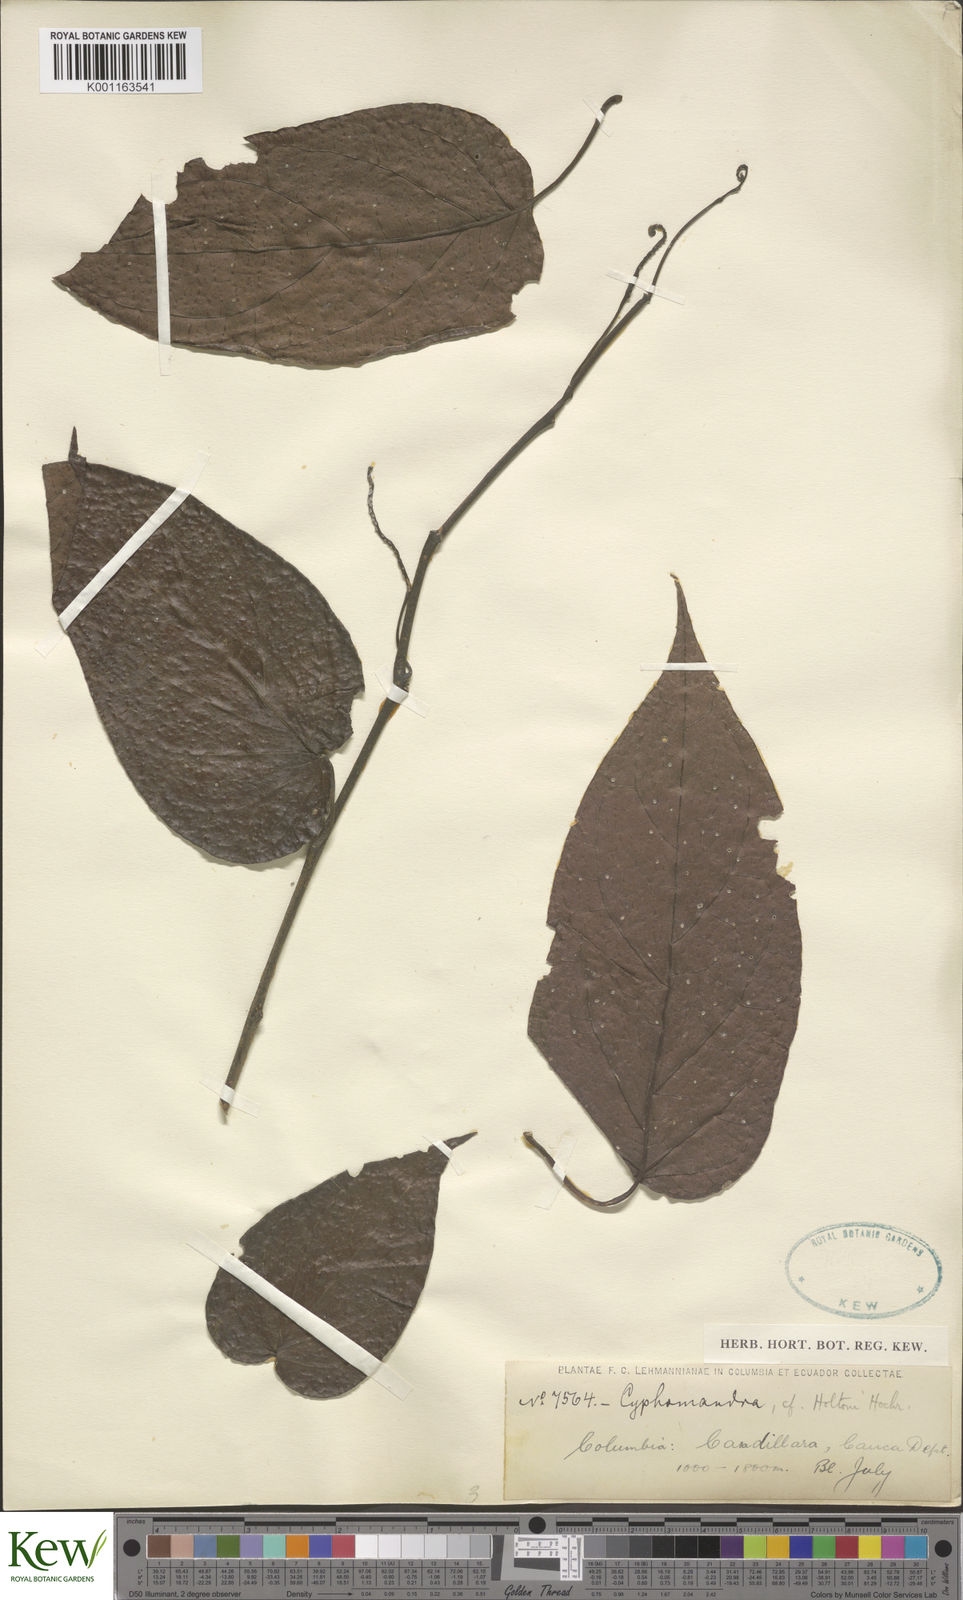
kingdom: Plantae
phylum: Tracheophyta
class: Magnoliopsida
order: Solanales
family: Solanaceae
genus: Solanum
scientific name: Solanum splendens
